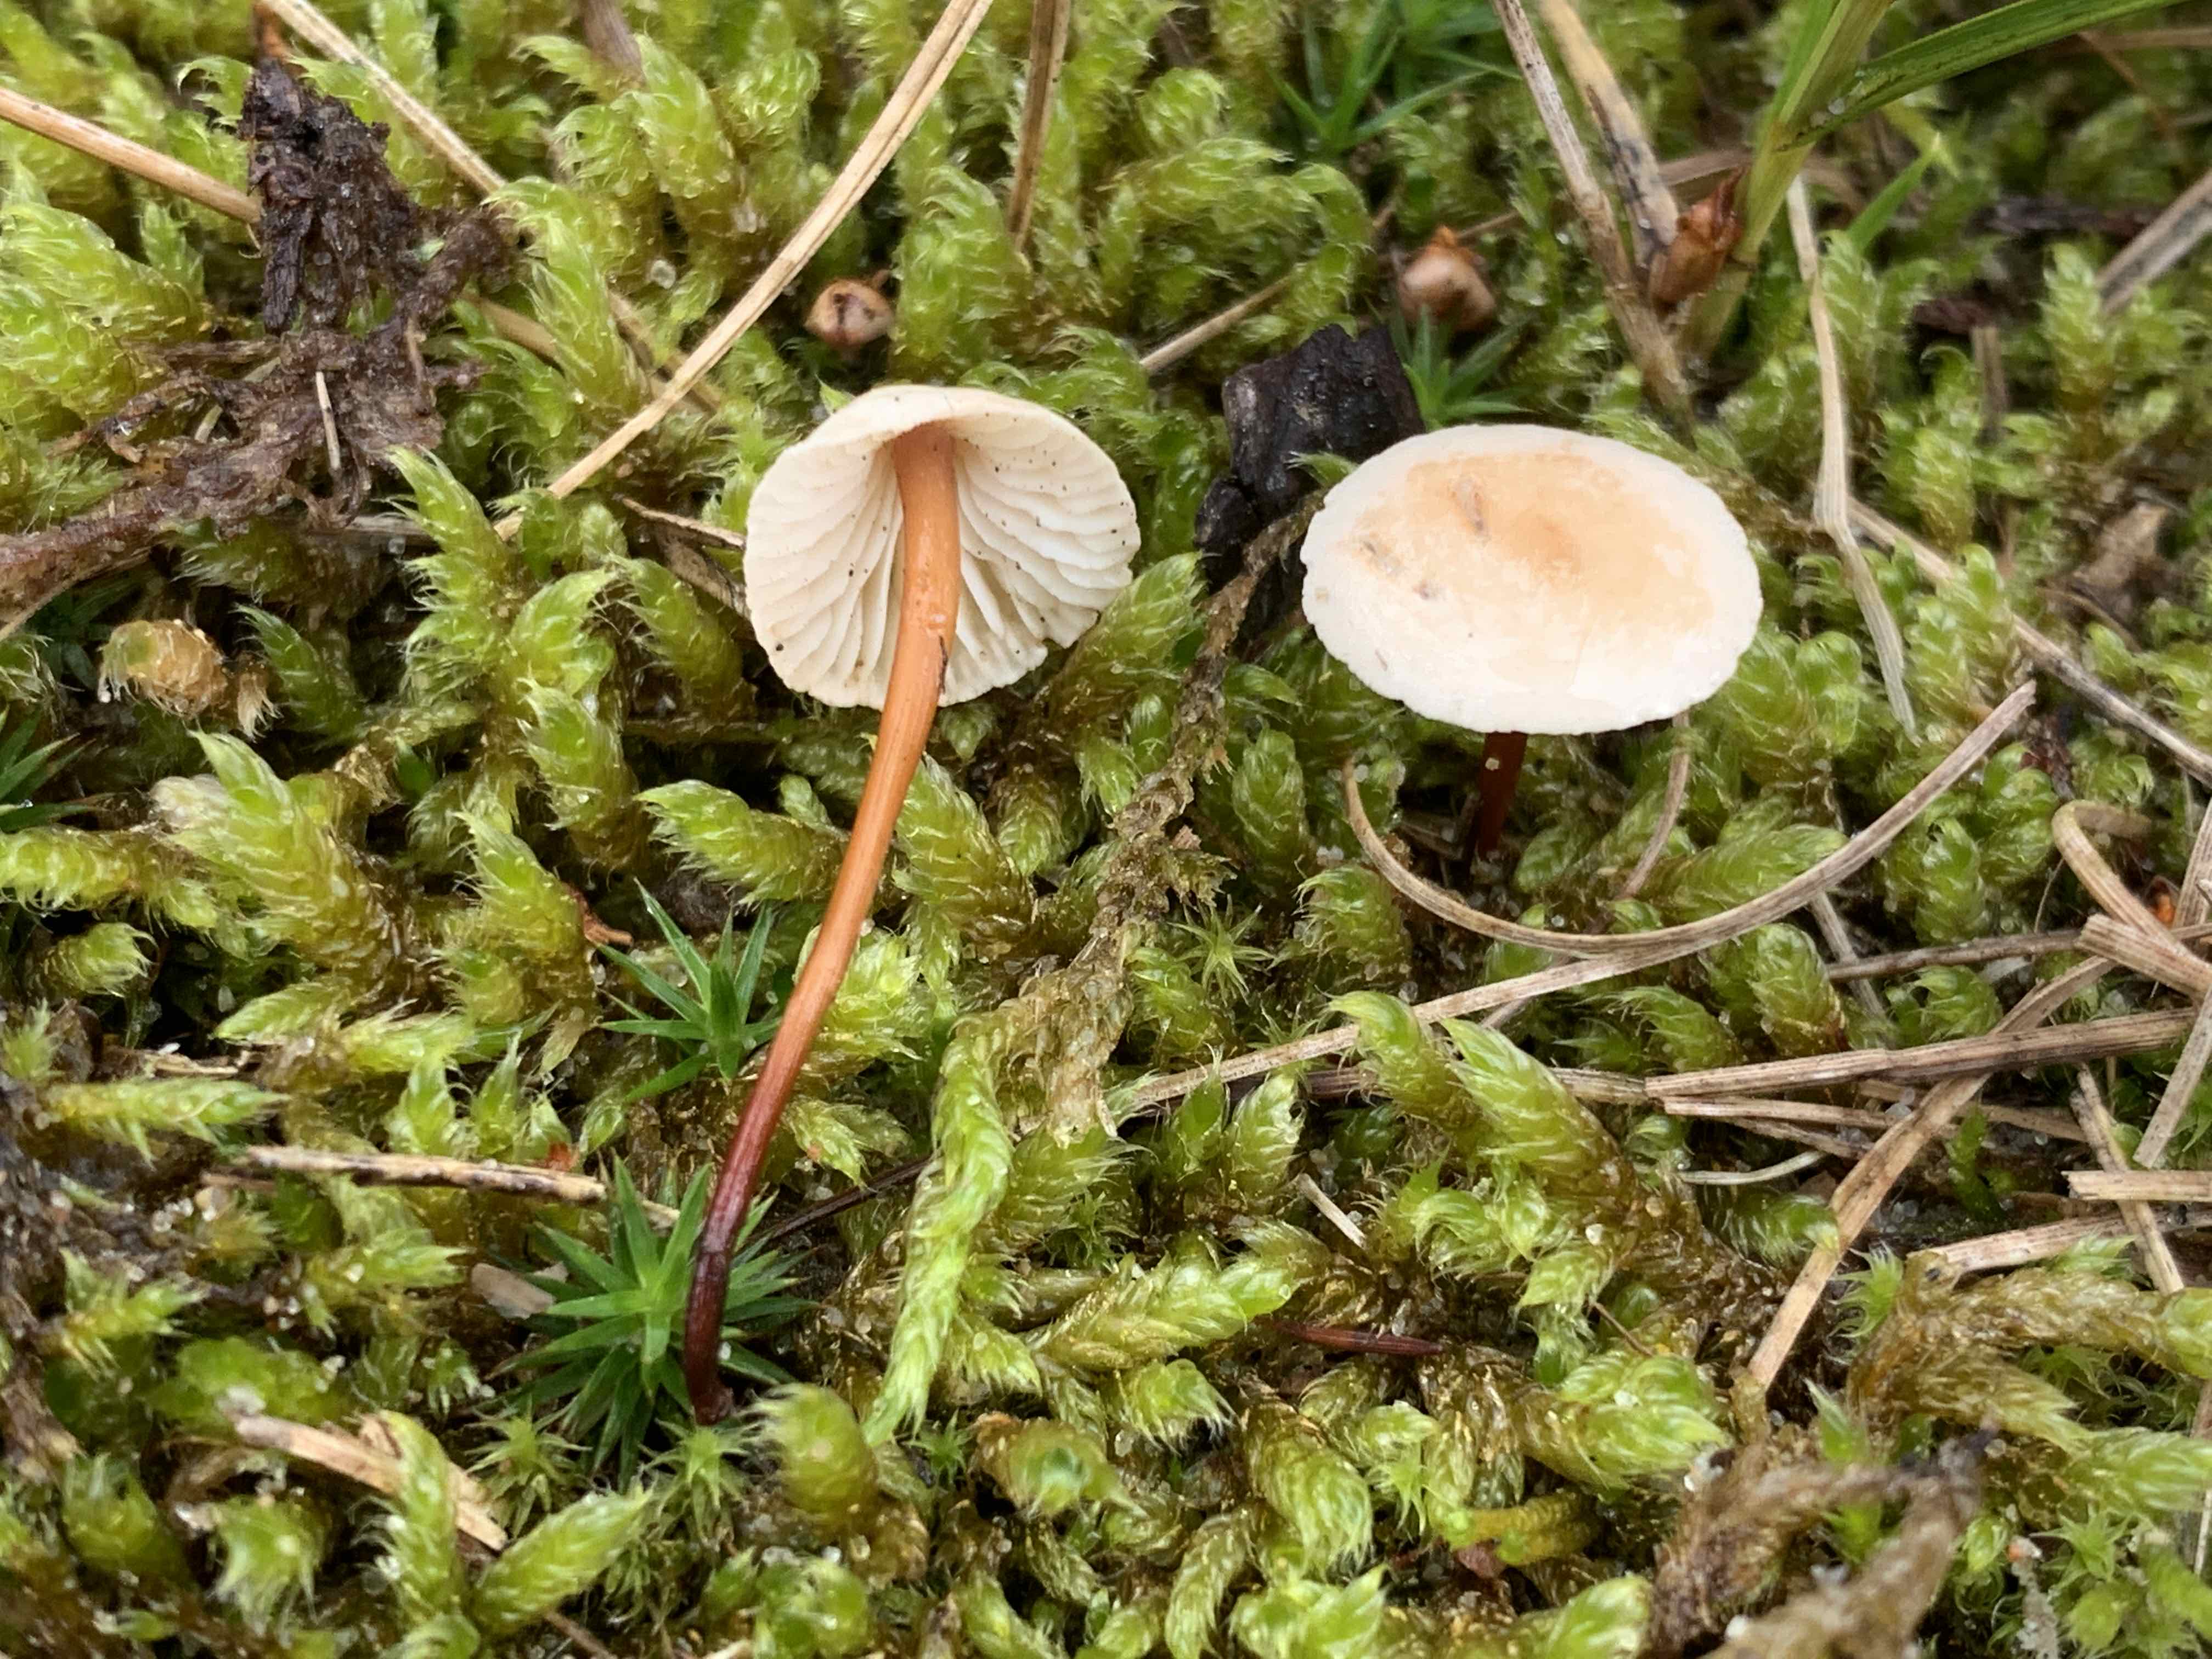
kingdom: Fungi
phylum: Basidiomycota
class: Agaricomycetes
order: Agaricales
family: Omphalotaceae
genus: Mycetinis
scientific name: Mycetinis scorodonius
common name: lille løghat
